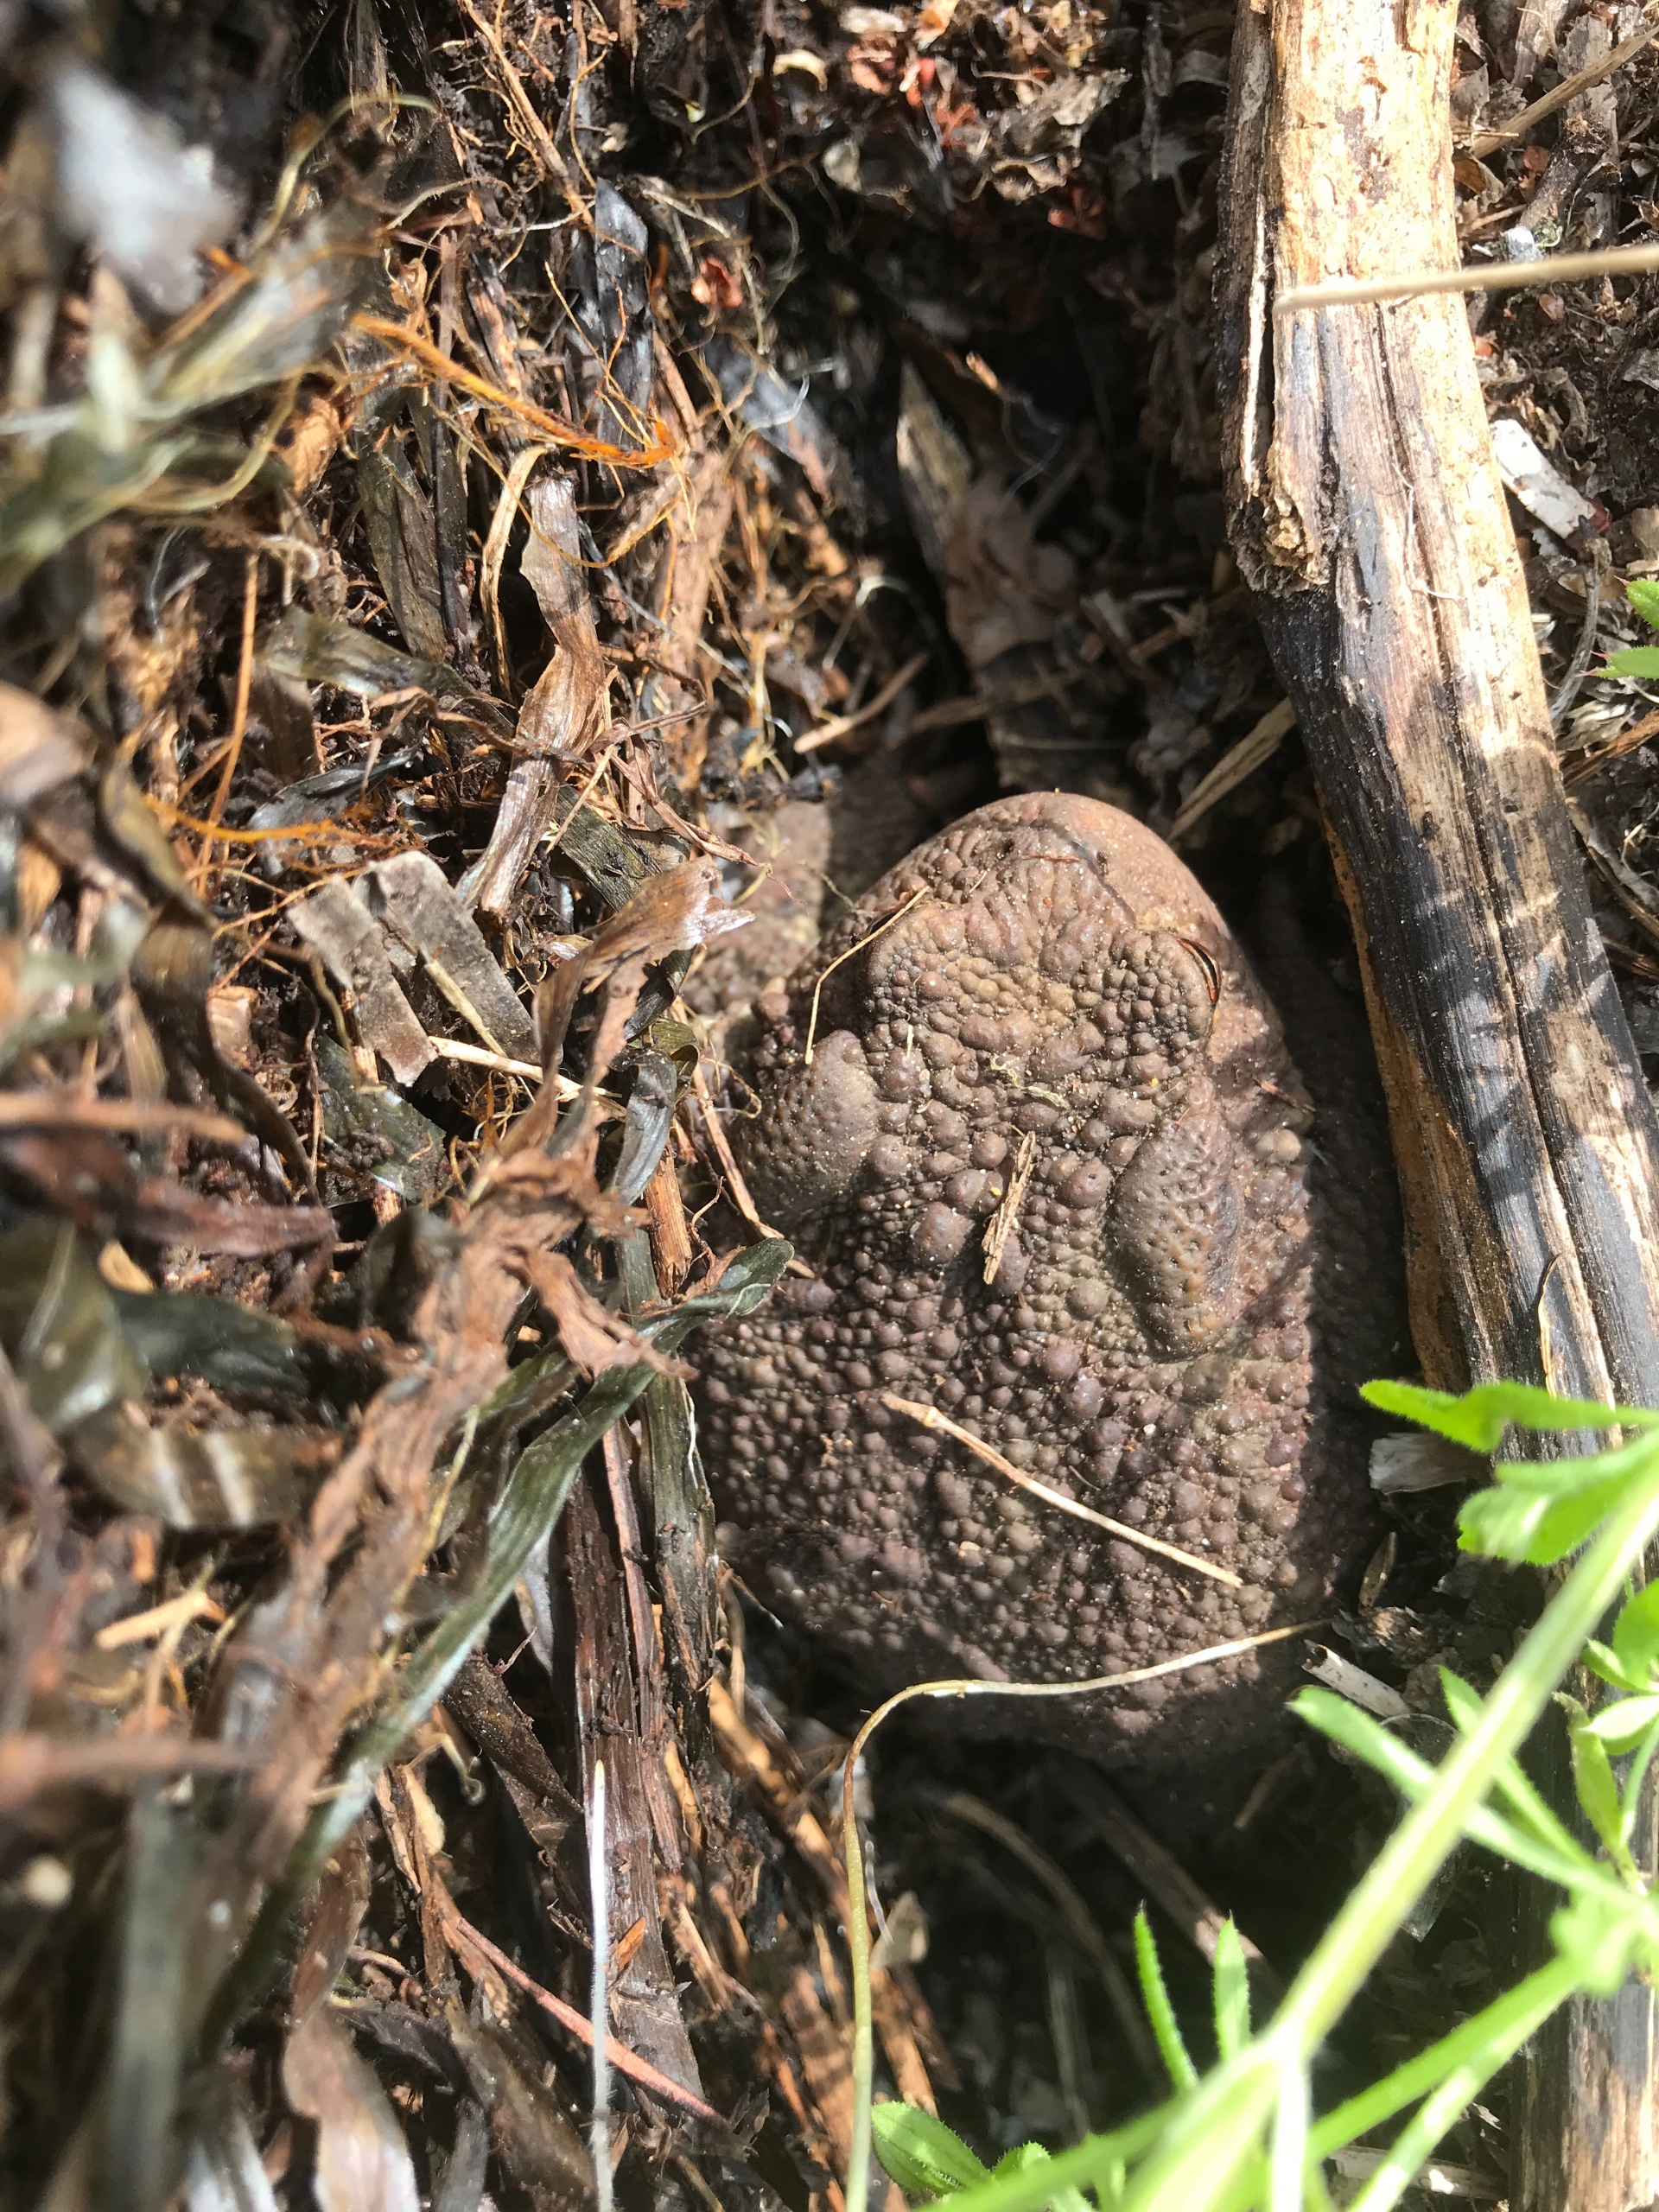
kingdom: Animalia
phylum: Chordata
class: Amphibia
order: Anura
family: Bufonidae
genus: Bufo
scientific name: Bufo bufo
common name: Skrubtudse
